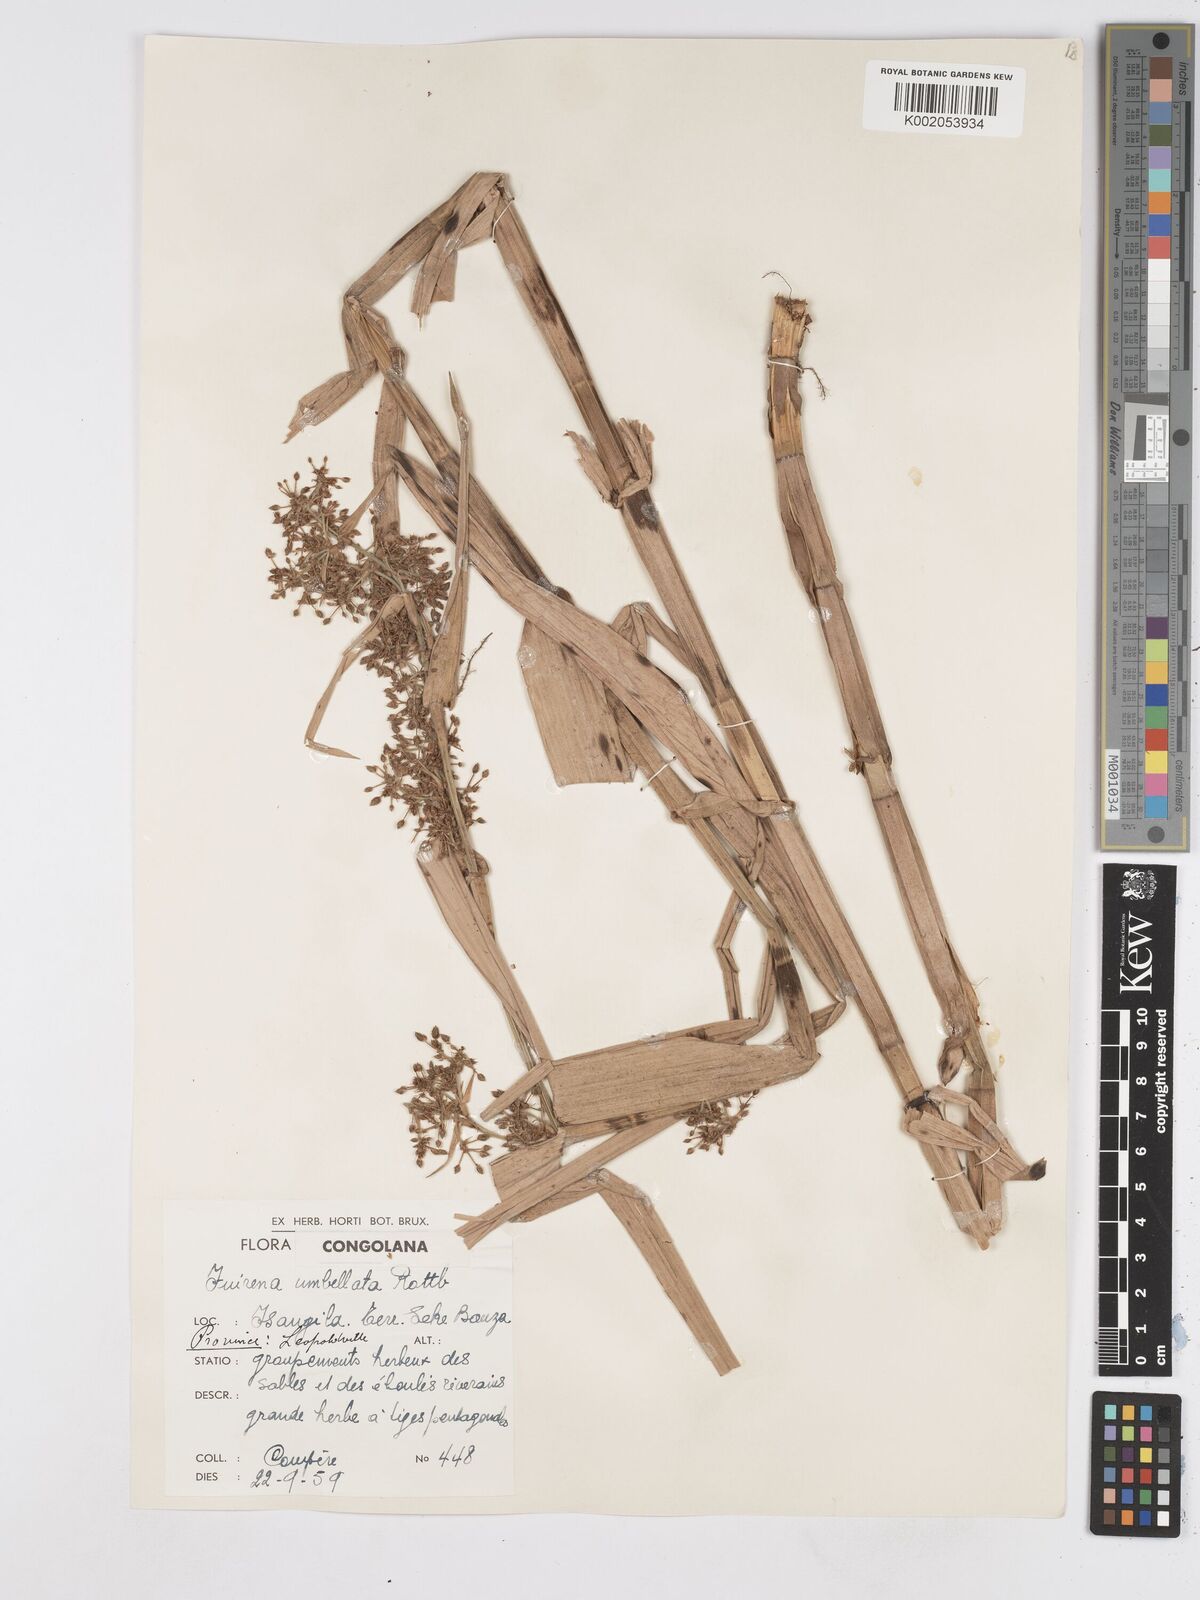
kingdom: Plantae
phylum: Tracheophyta
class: Liliopsida
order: Poales
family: Cyperaceae
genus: Fuirena
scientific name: Fuirena umbellata
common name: Yefen
